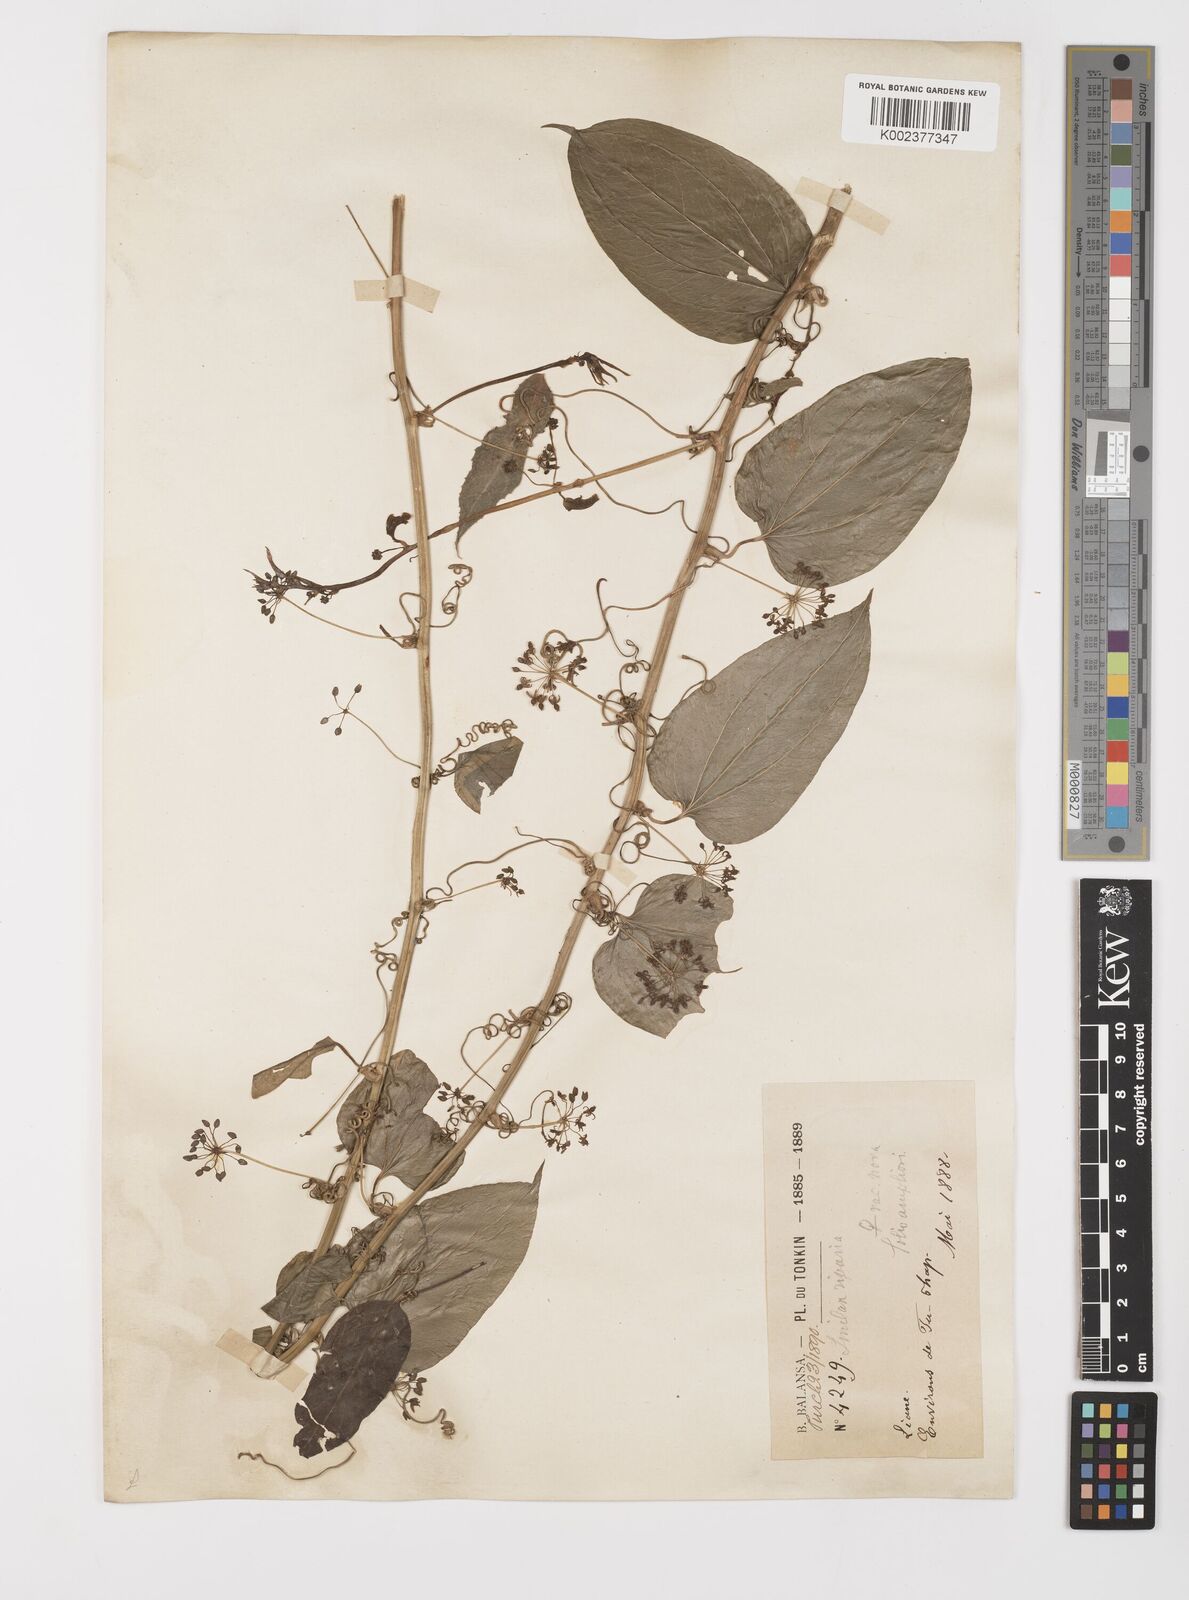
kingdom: Plantae
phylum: Tracheophyta
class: Liliopsida
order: Liliales
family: Smilacaceae
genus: Smilax
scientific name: Smilax riparia
